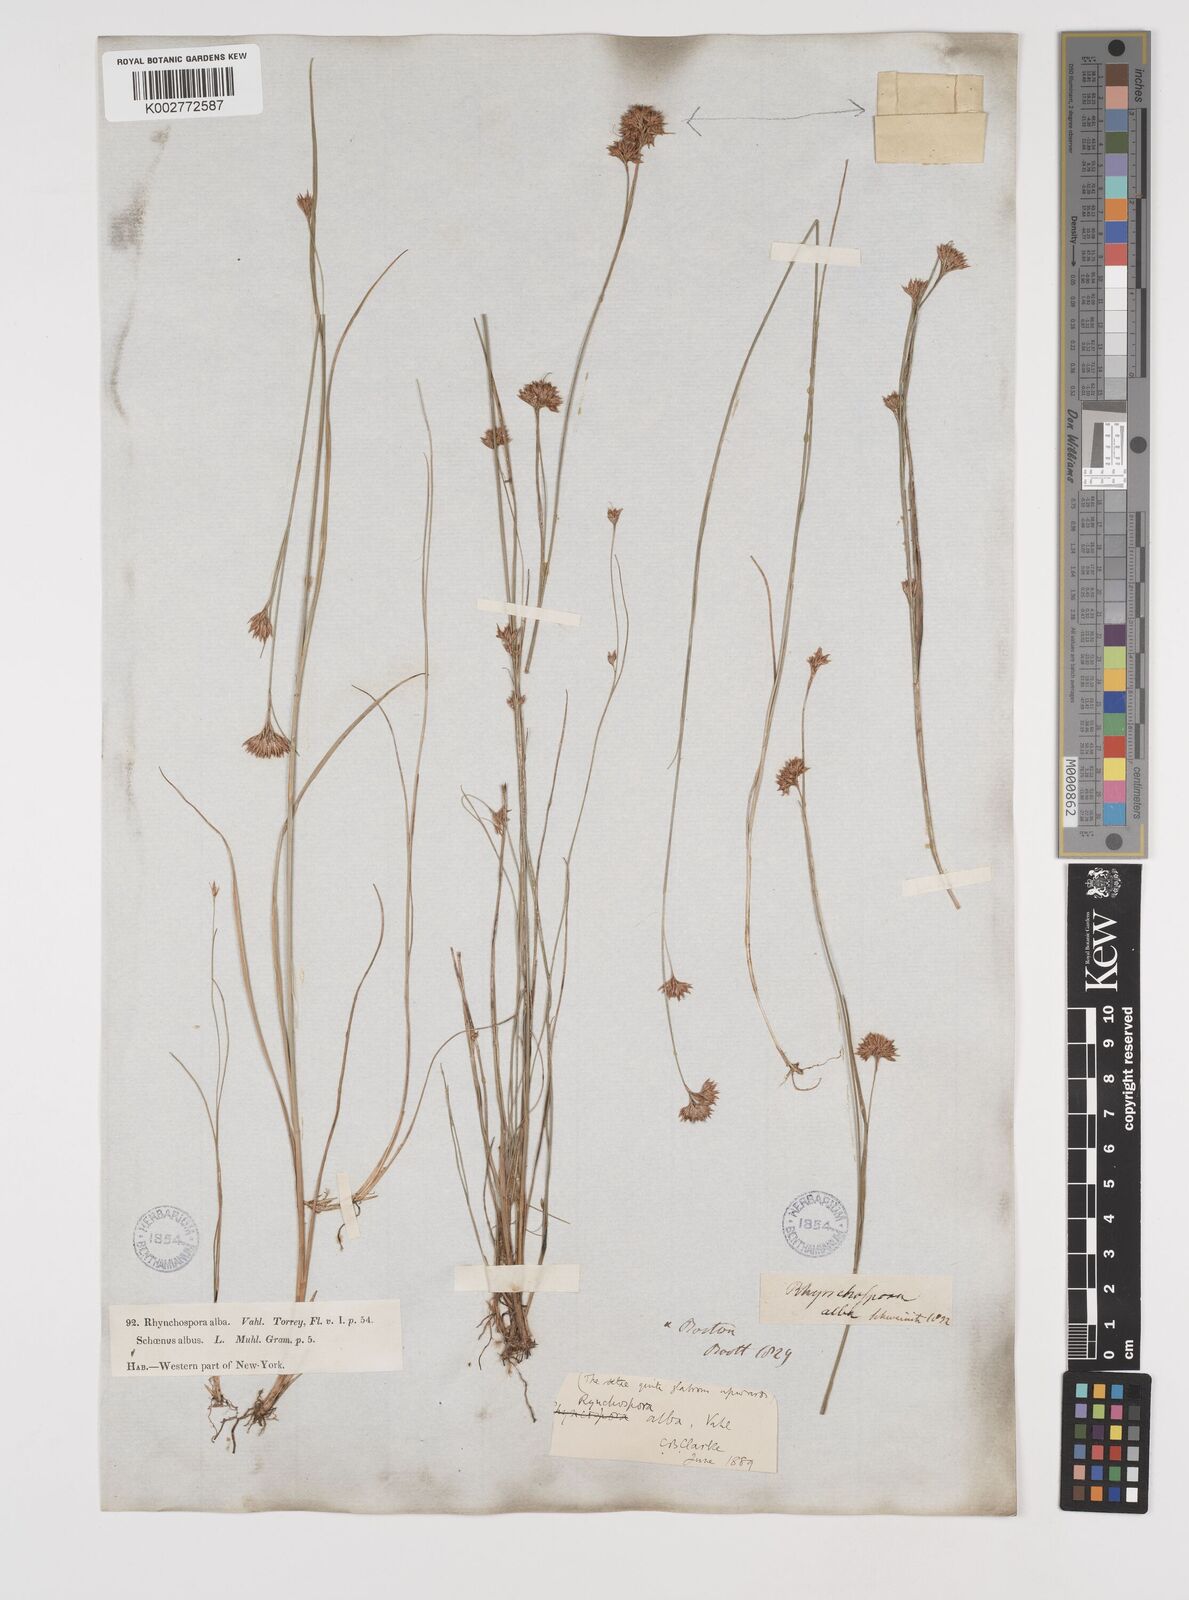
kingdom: Plantae
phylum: Tracheophyta
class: Liliopsida
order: Poales
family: Cyperaceae
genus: Rhynchospora
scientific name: Rhynchospora alba
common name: White beak-sedge
